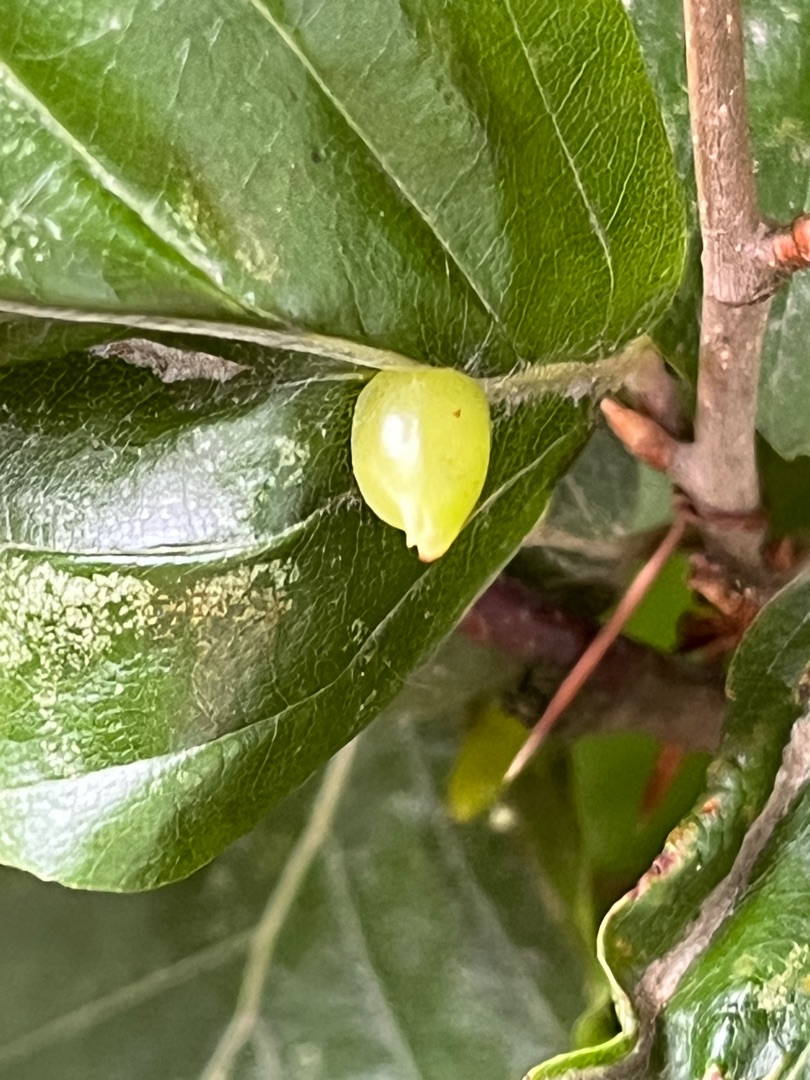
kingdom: Animalia
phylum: Arthropoda
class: Insecta
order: Diptera
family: Cecidomyiidae
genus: Mikiola
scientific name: Mikiola fagi
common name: Bøgegalmyg
